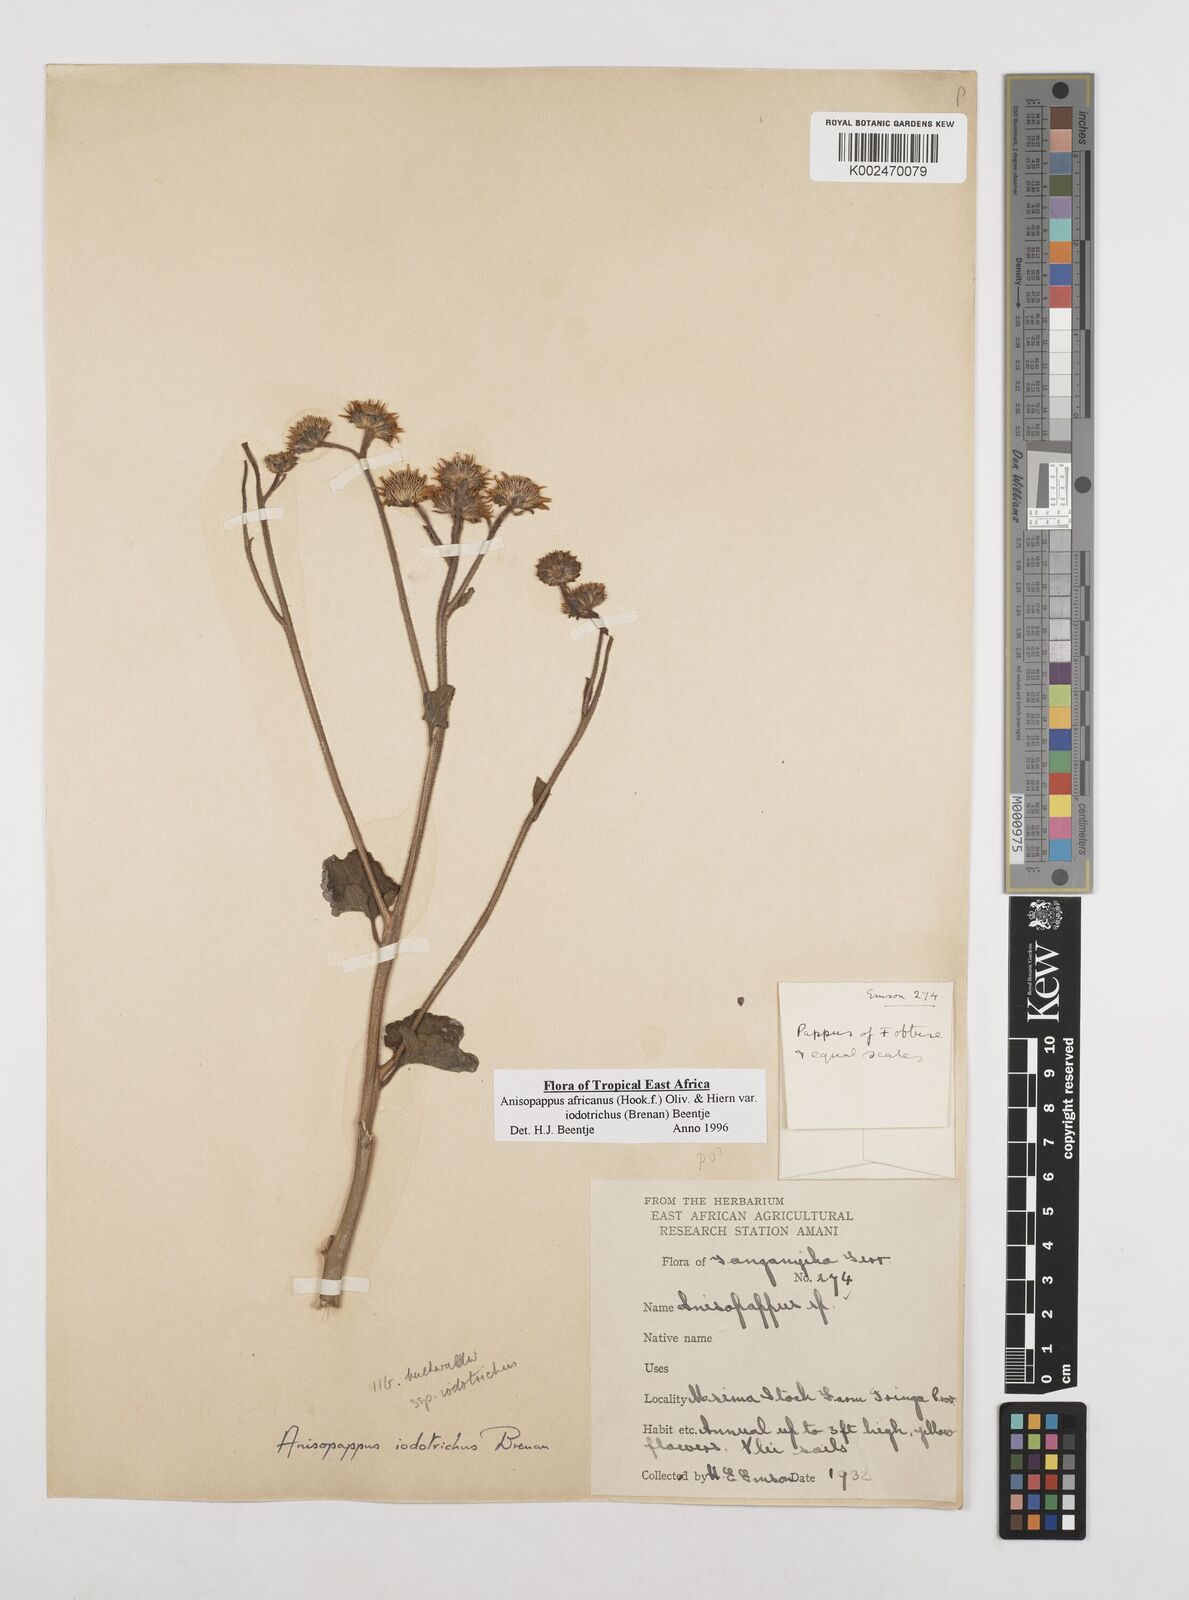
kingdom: Plantae
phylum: Tracheophyta
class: Magnoliopsida
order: Asterales
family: Asteraceae
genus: Anisopappus
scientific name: Anisopappus buchwaldii
